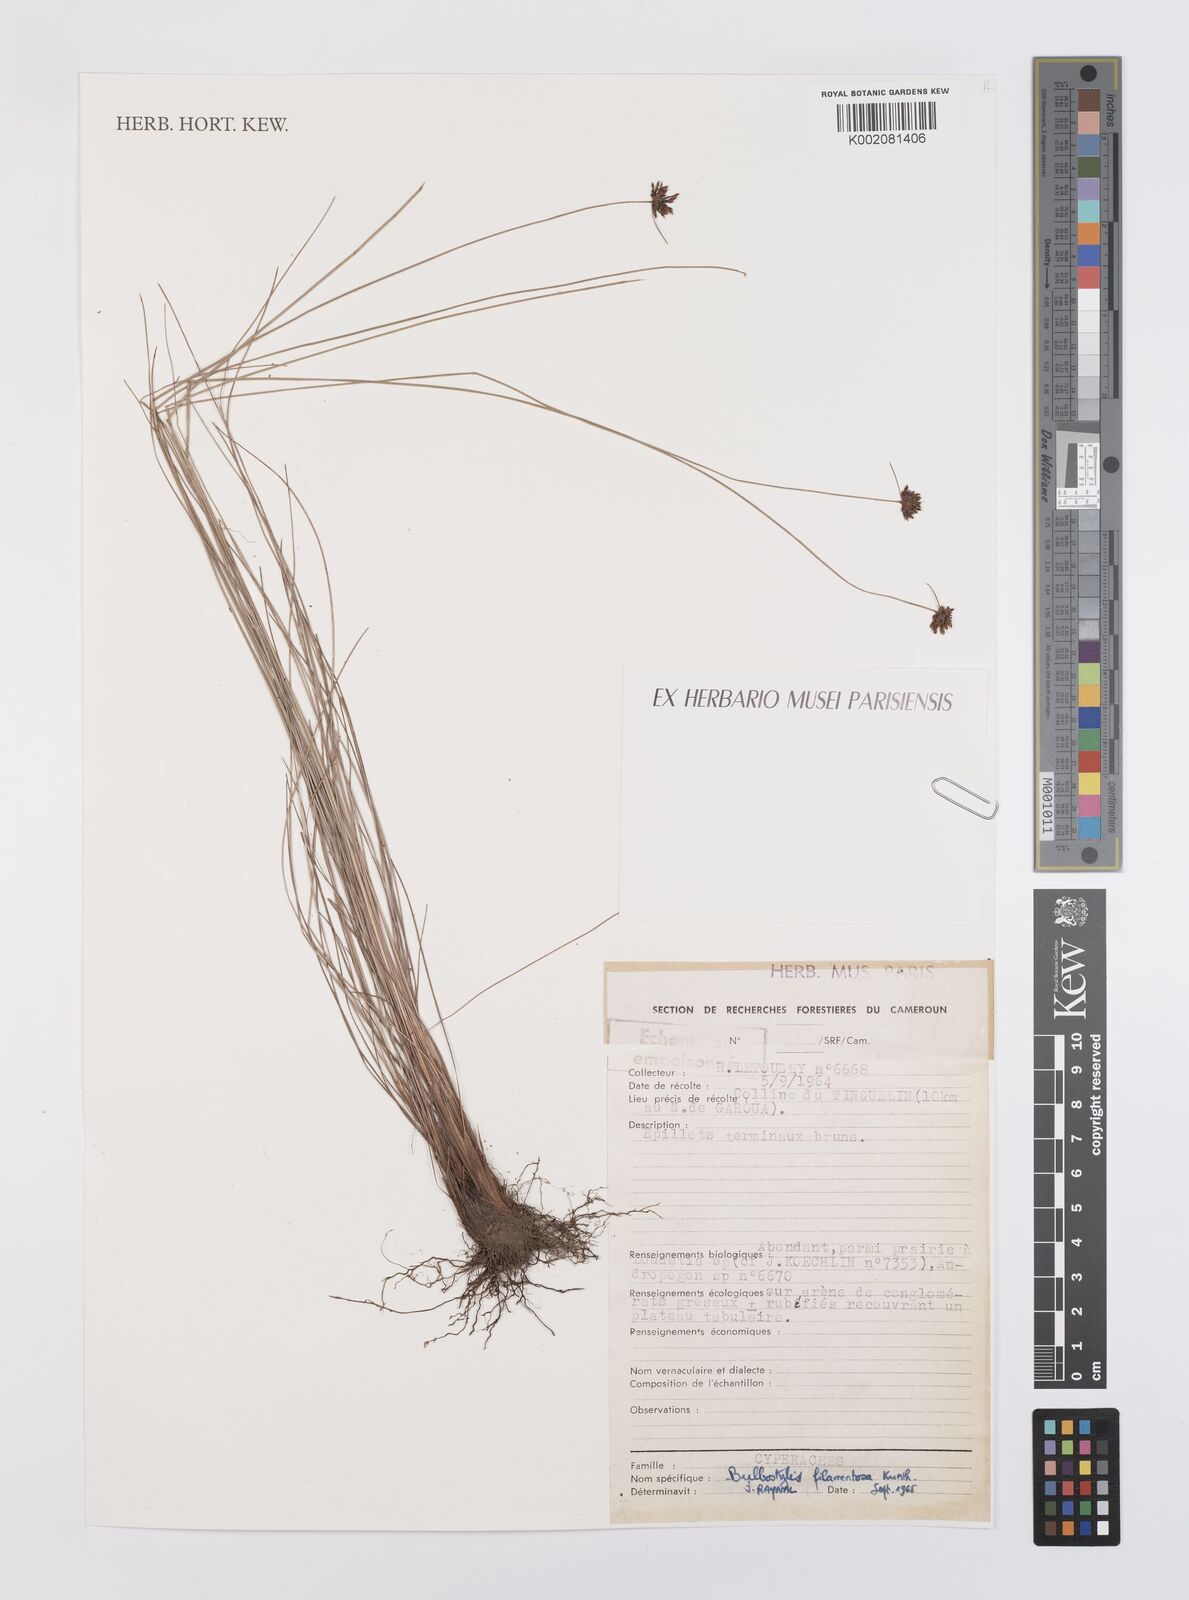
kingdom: Plantae
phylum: Tracheophyta
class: Liliopsida
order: Poales
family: Cyperaceae
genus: Bulbostylis
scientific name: Bulbostylis filamentosa
